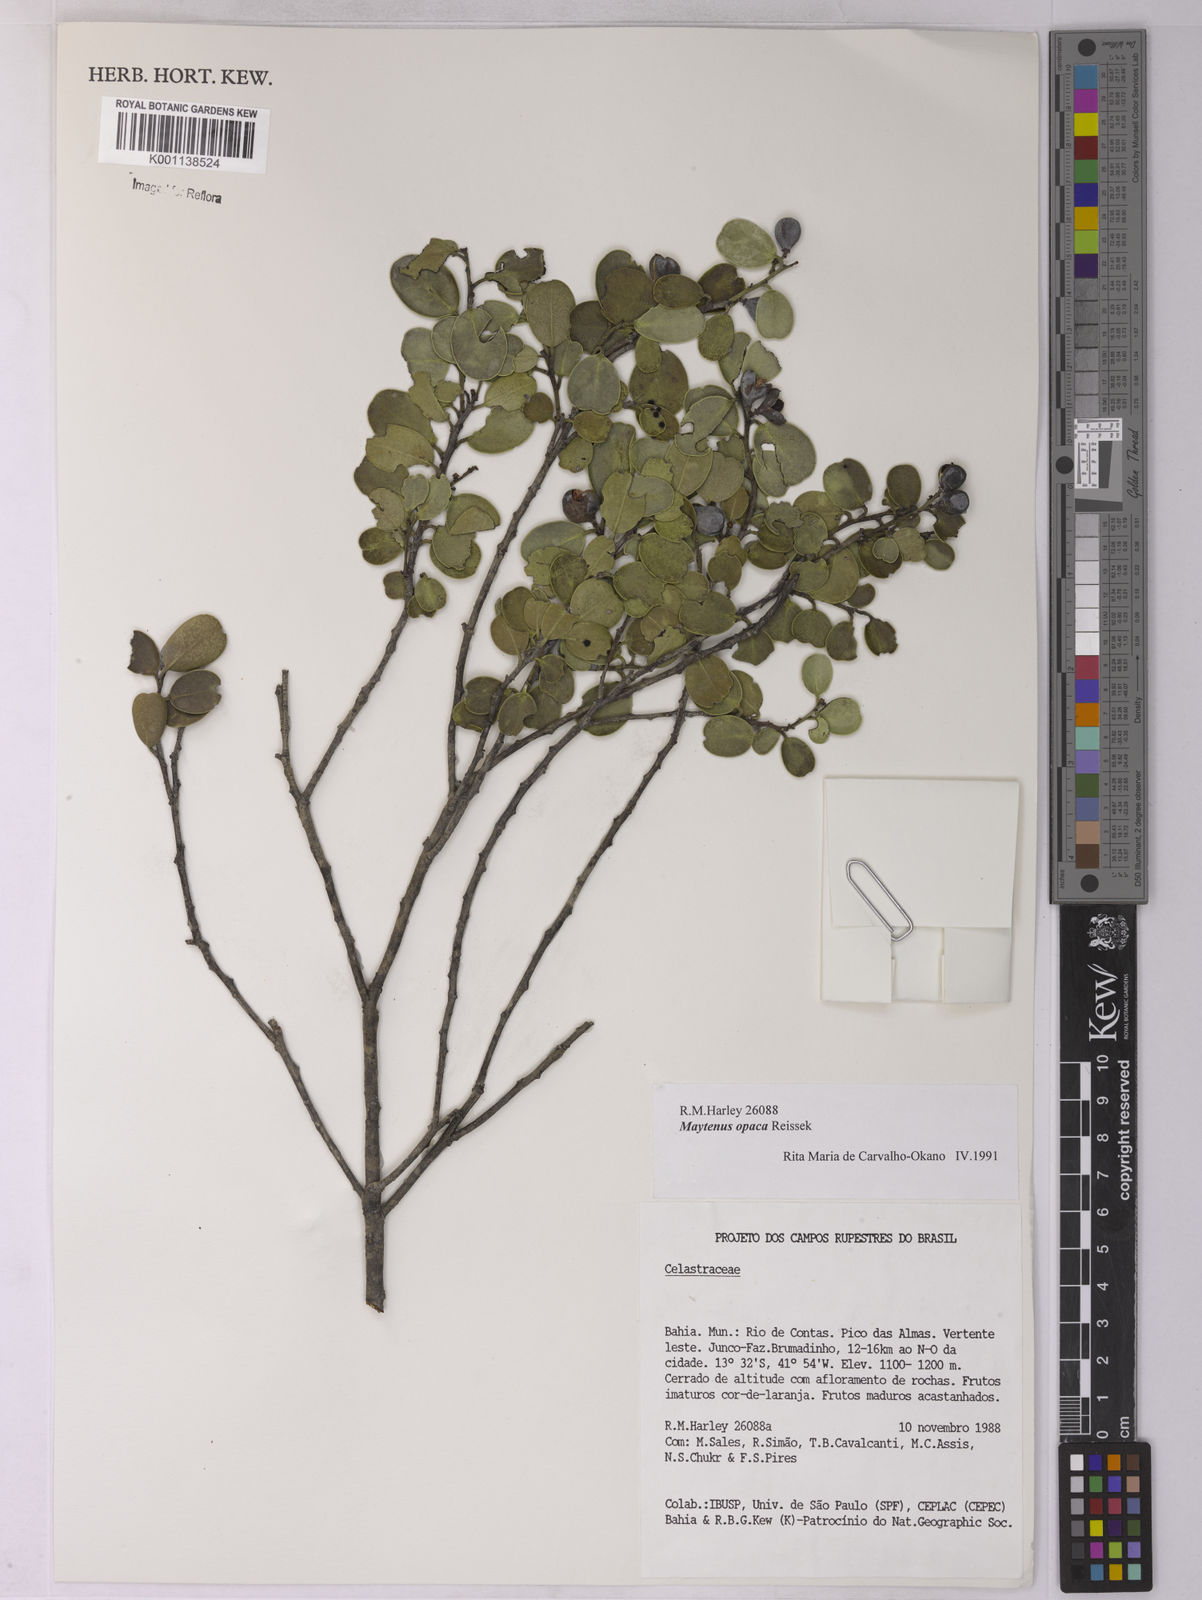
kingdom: Plantae
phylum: Tracheophyta
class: Magnoliopsida
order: Celastrales
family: Celastraceae
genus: Monteverdia
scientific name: Monteverdia opaca
